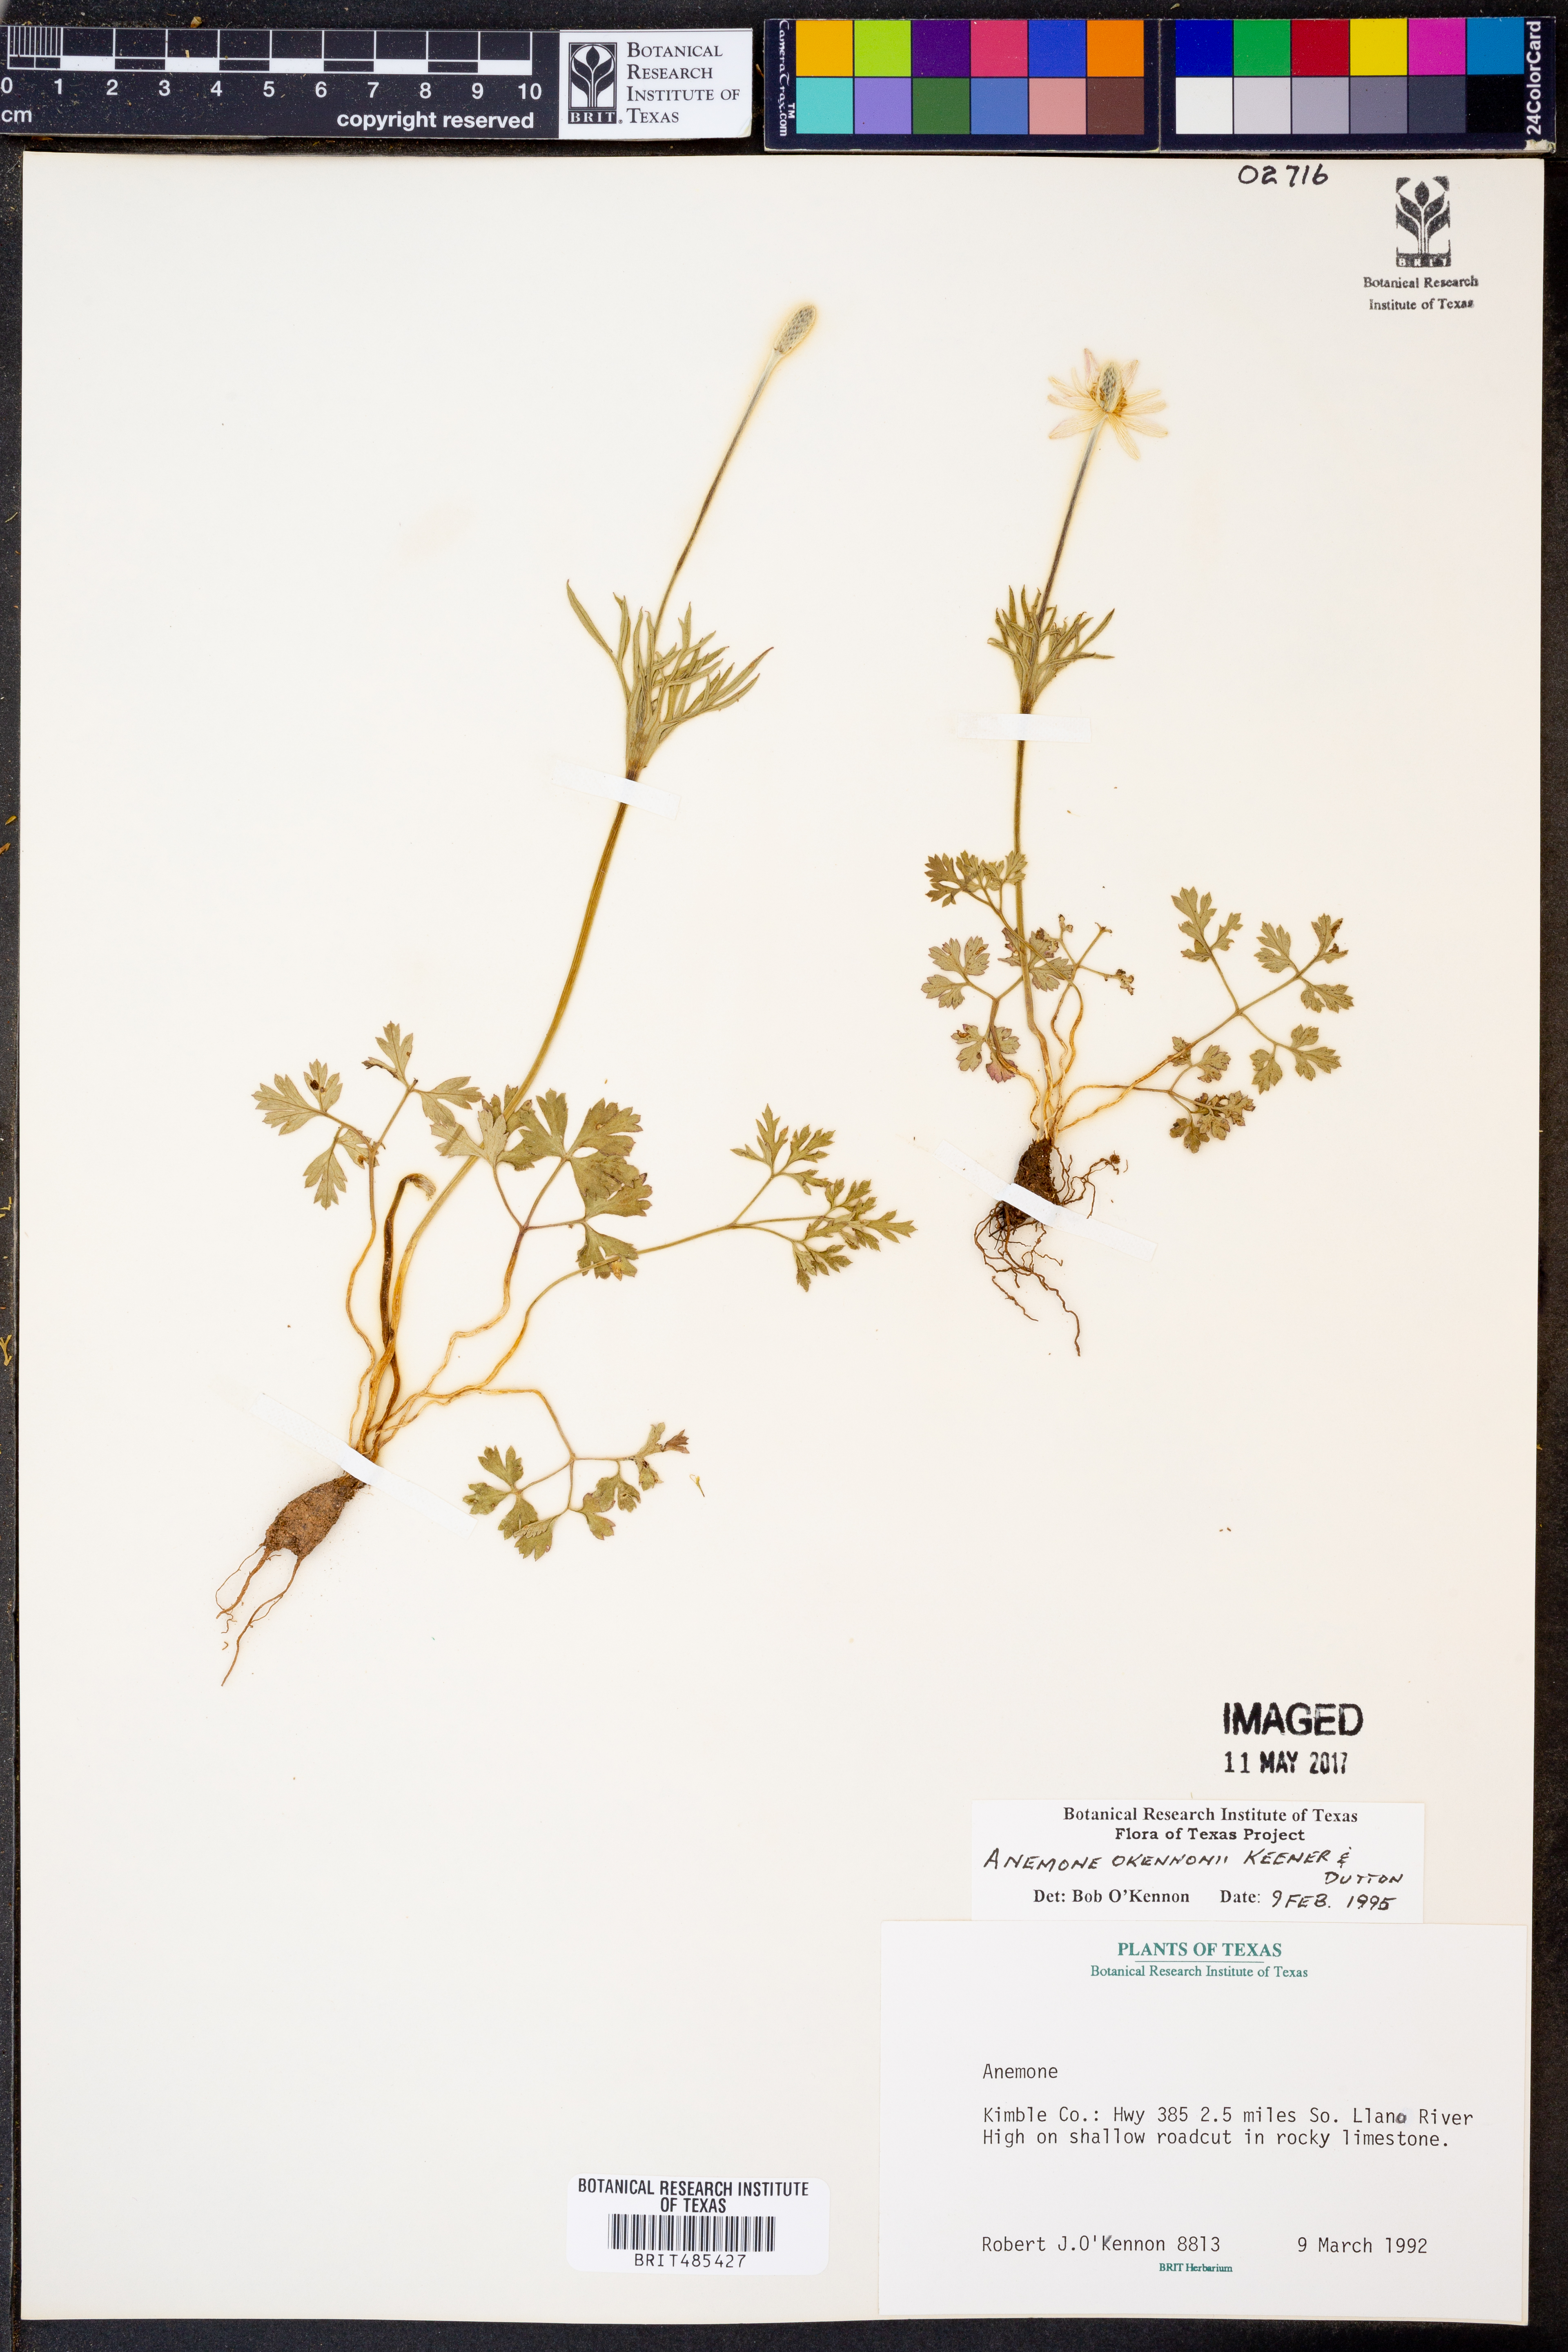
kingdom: Plantae
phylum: Tracheophyta
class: Magnoliopsida
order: Ranunculales
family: Ranunculaceae
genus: Anemone
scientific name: Anemone tuberosa
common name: Desert anemone
